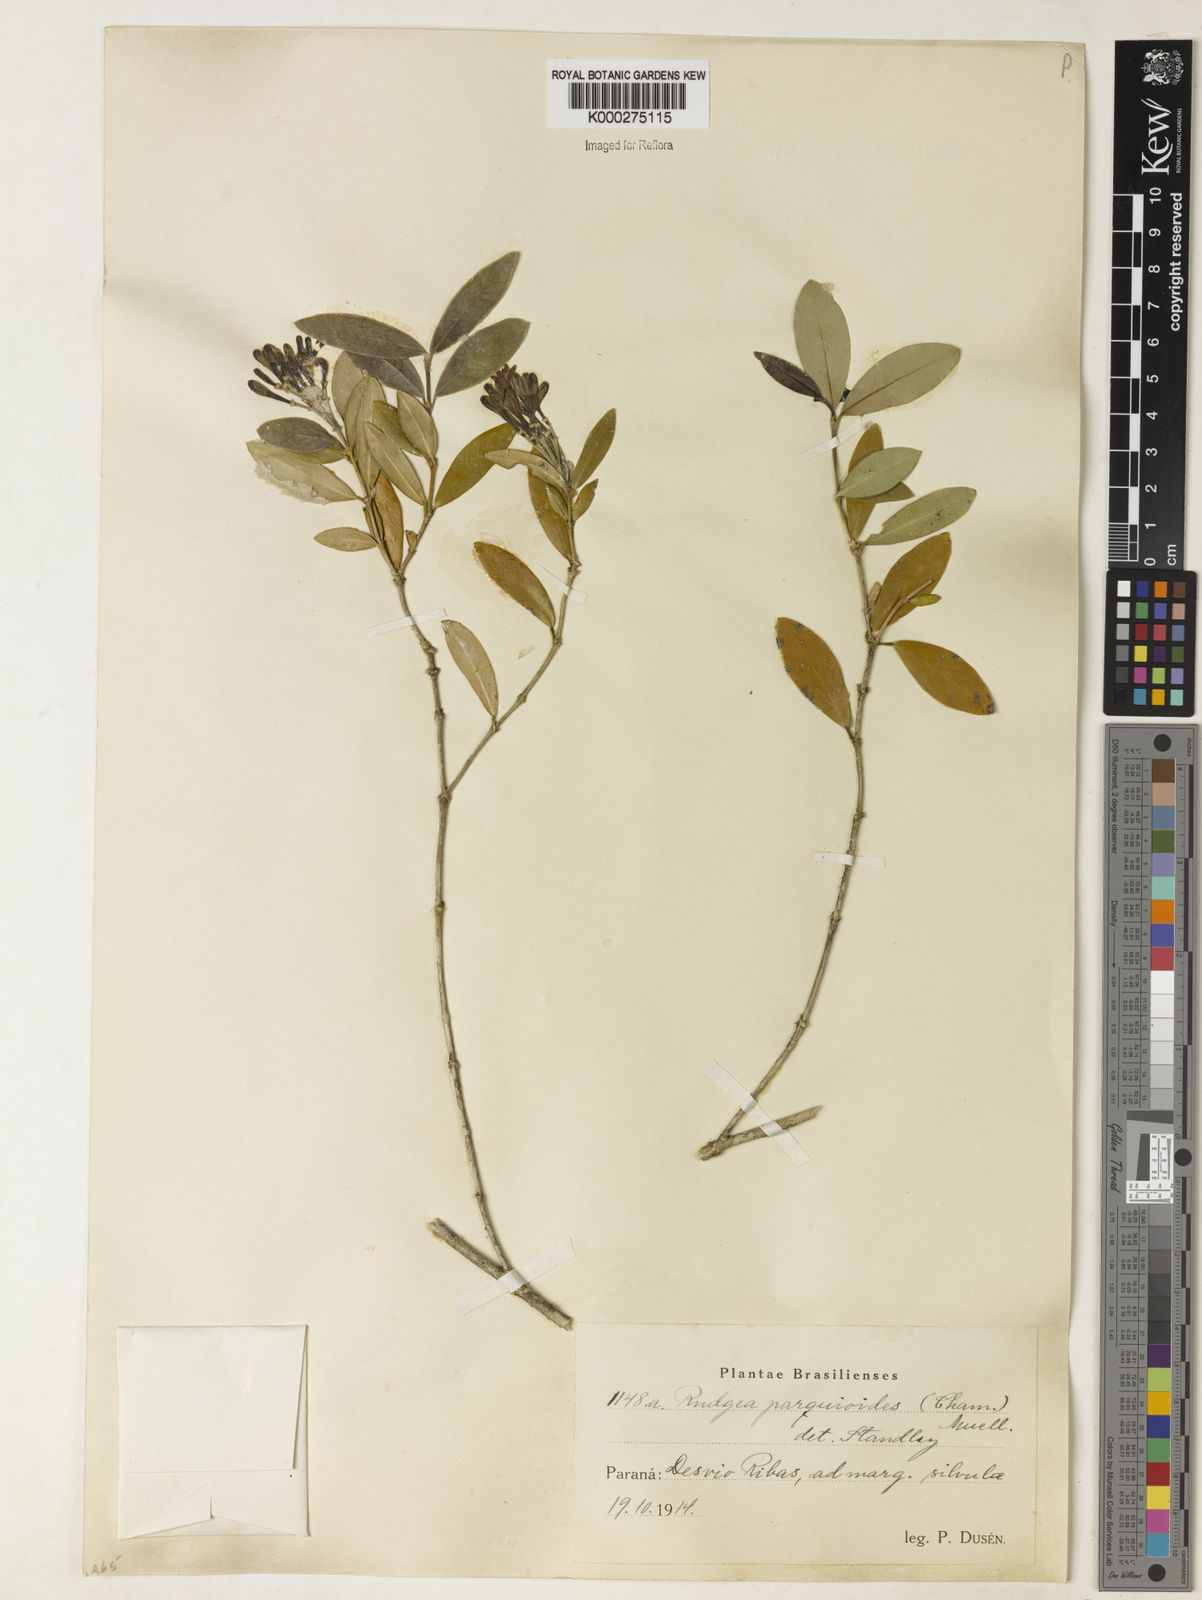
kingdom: Plantae
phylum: Tracheophyta
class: Magnoliopsida
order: Gentianales
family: Rubiaceae
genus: Rudgea
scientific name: Rudgea parquioides
